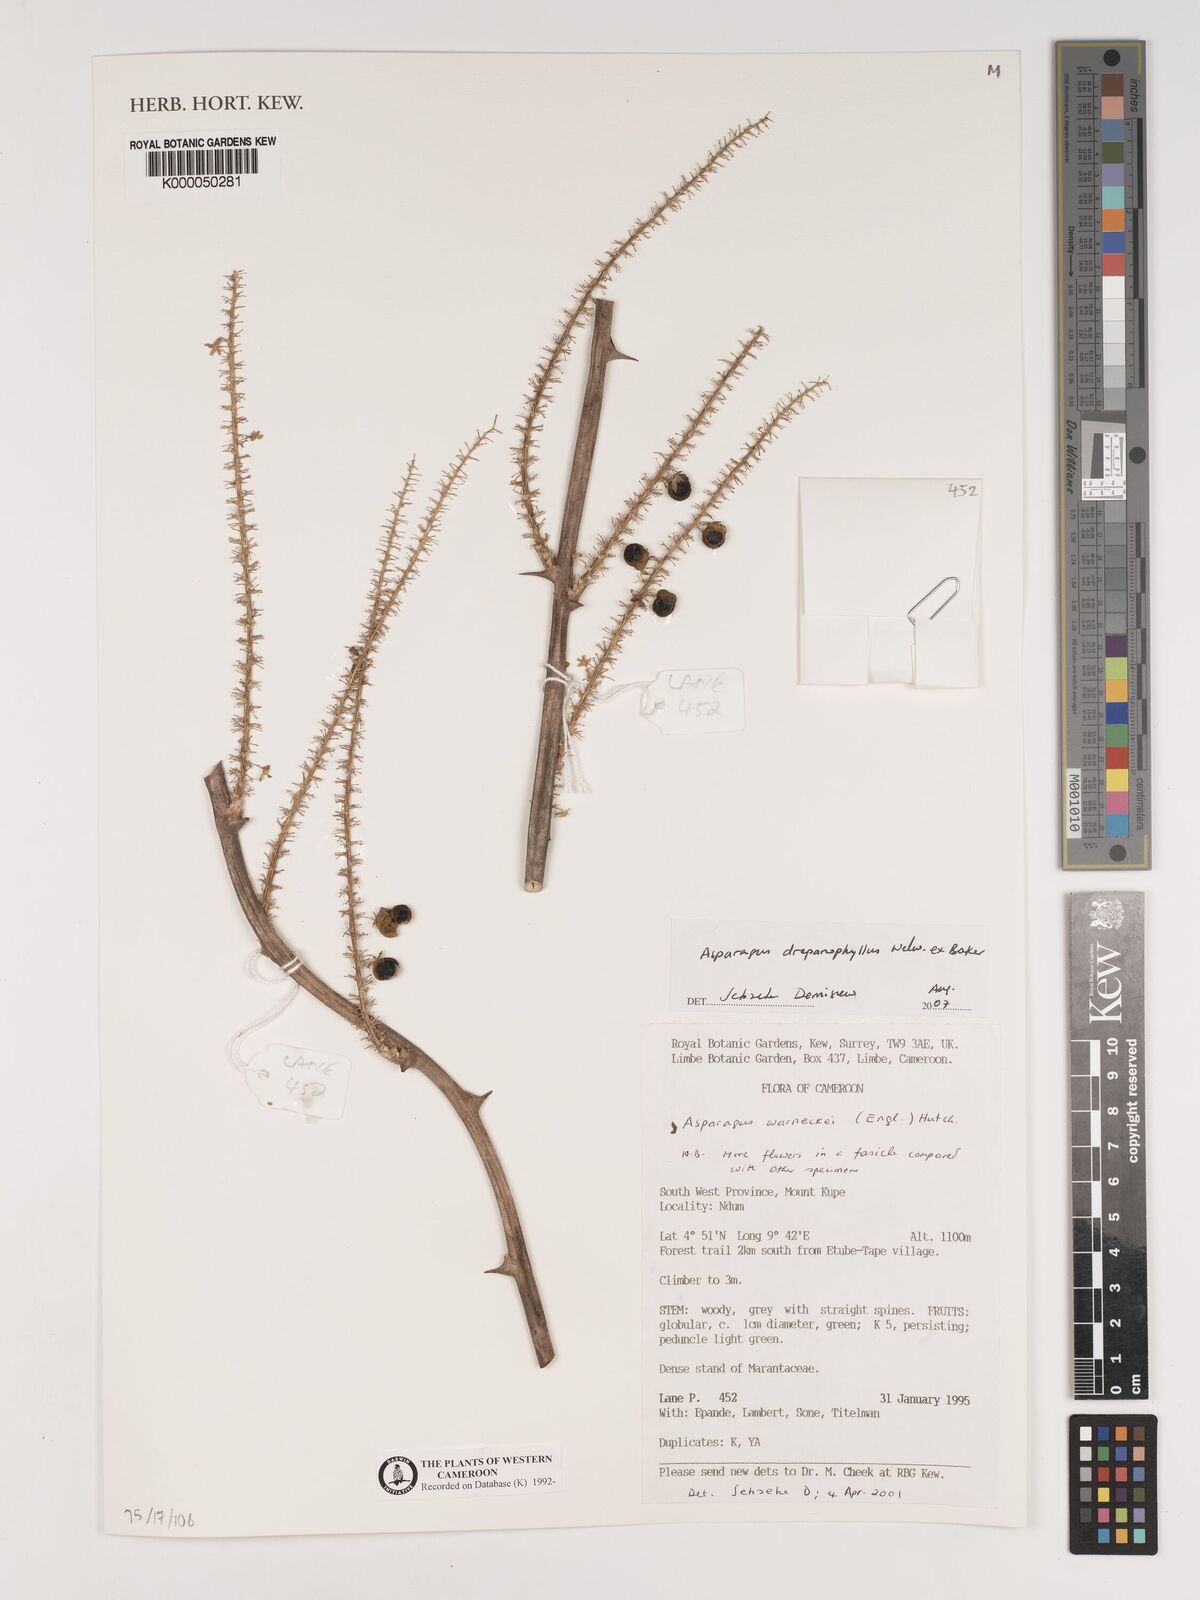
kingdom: Plantae
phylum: Tracheophyta
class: Liliopsida
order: Asparagales
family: Asparagaceae
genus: Asparagus
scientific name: Asparagus warneckei
